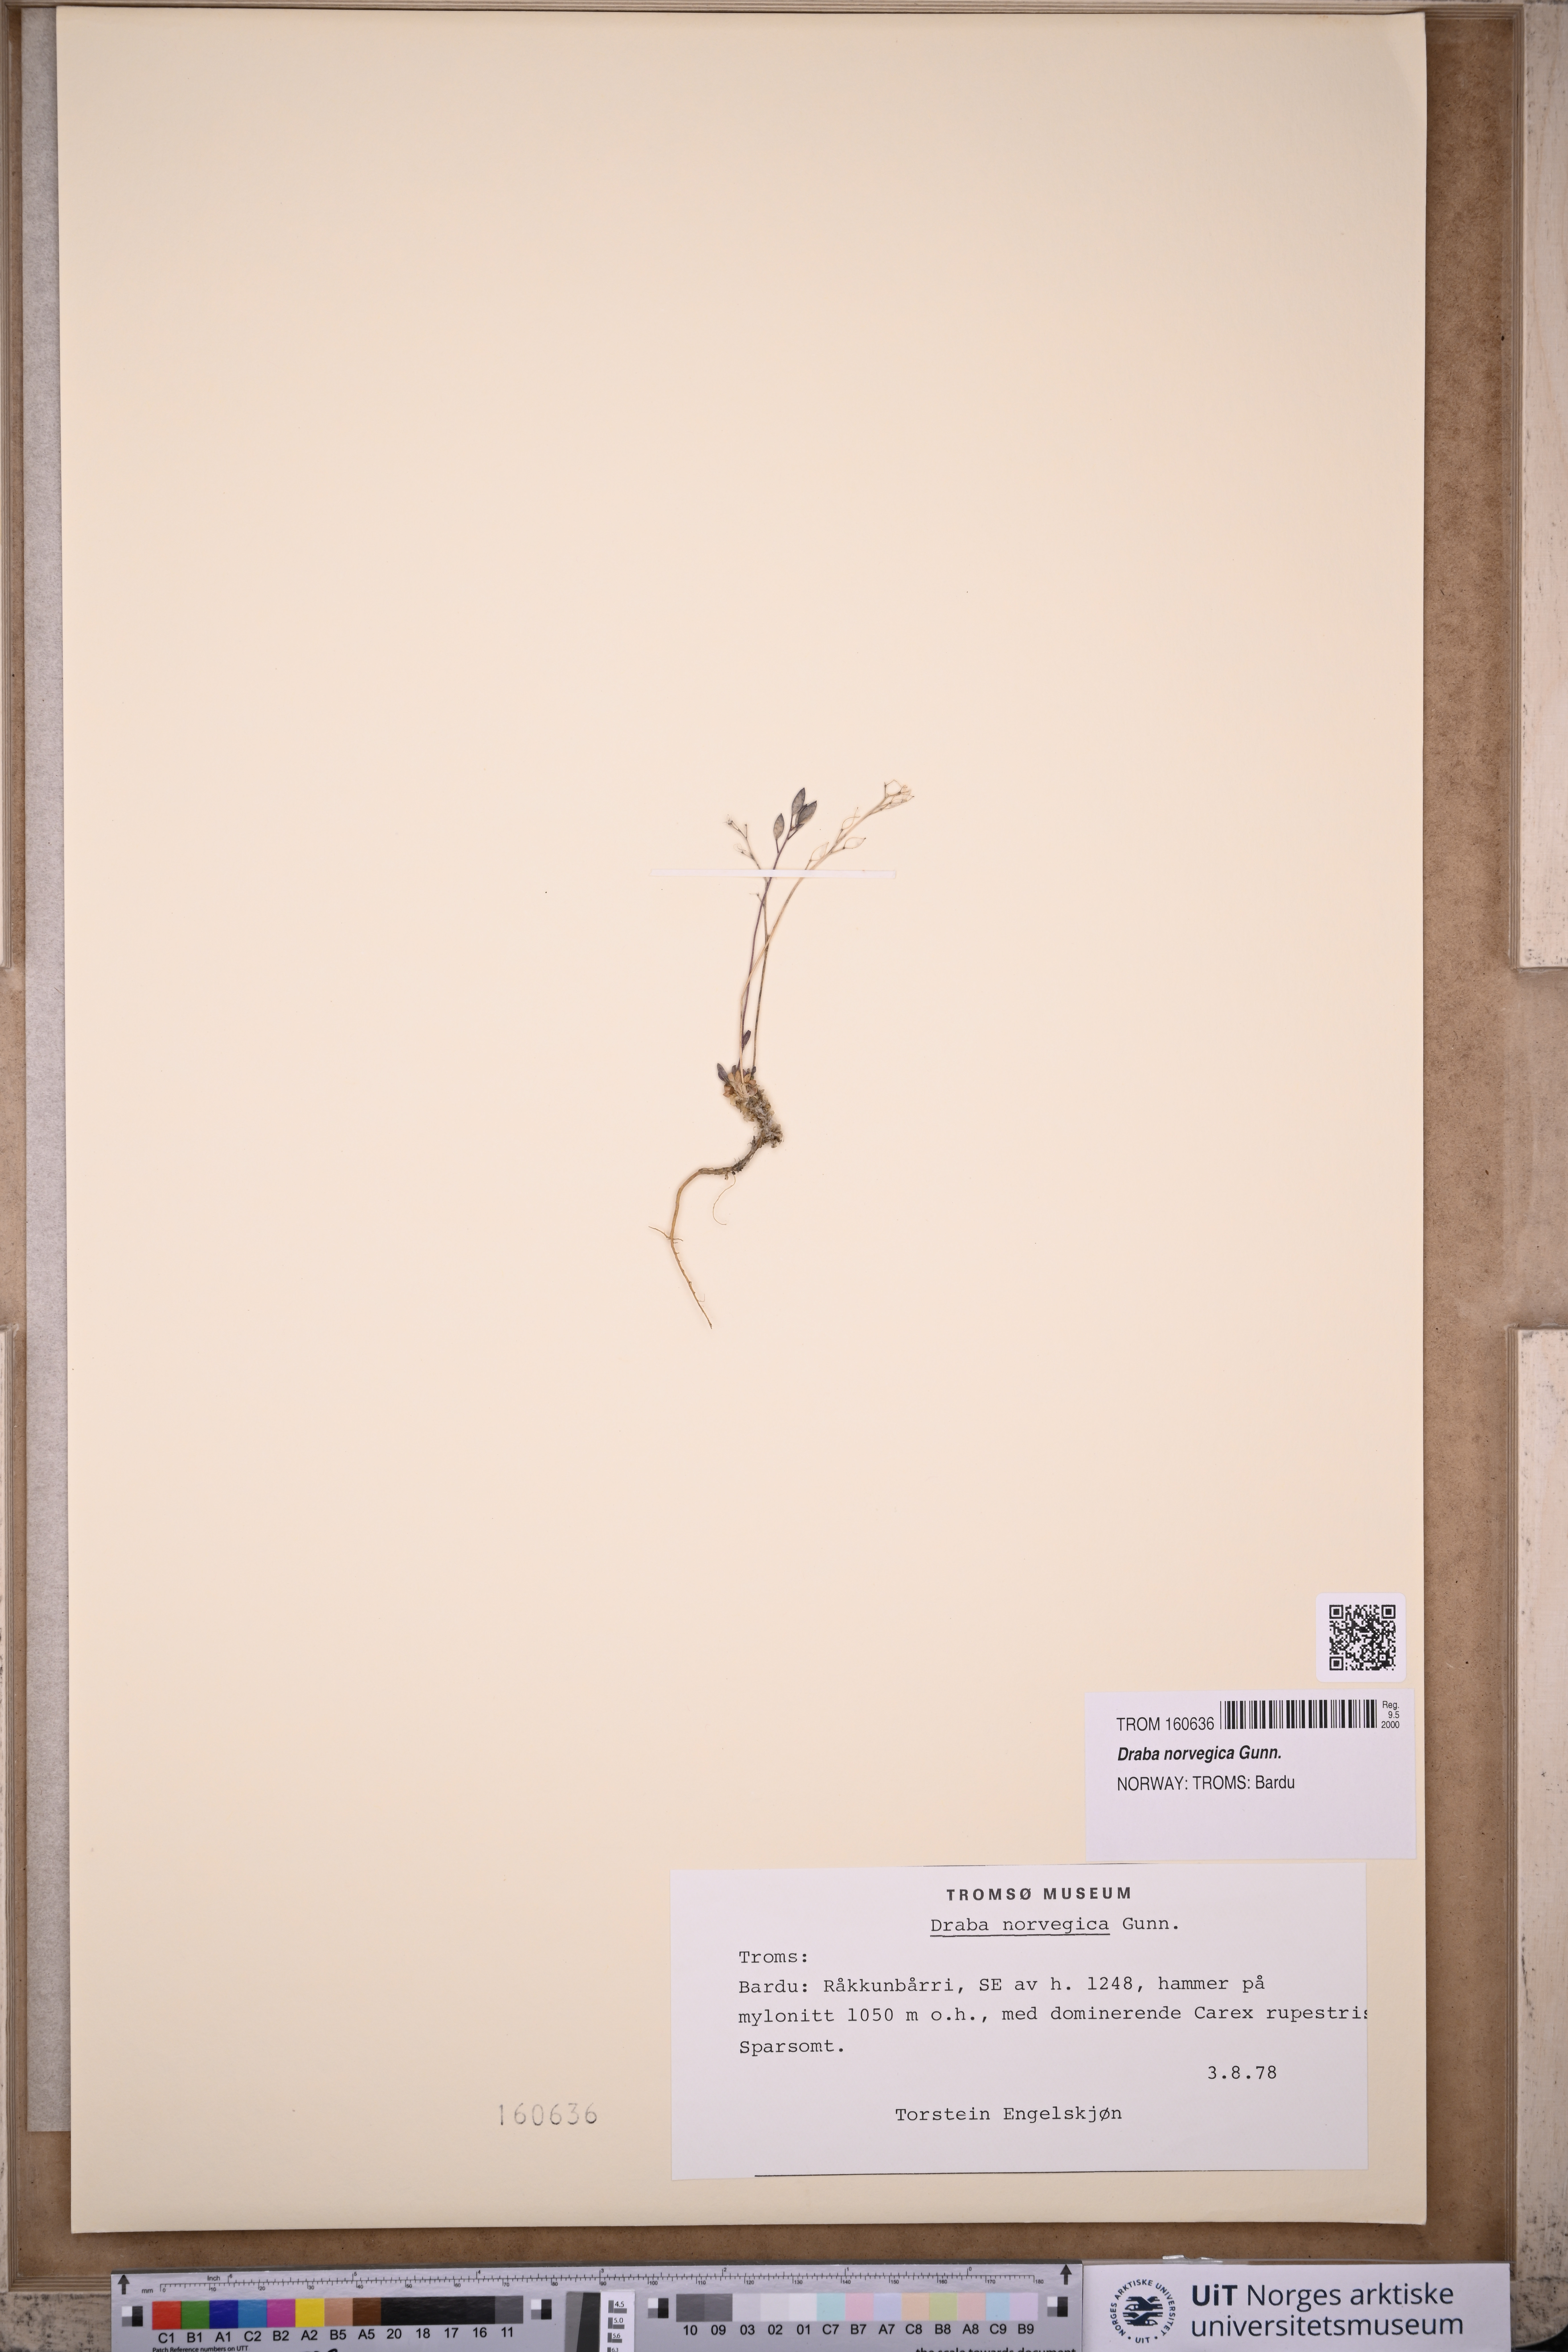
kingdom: Plantae
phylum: Tracheophyta
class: Magnoliopsida
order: Brassicales
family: Brassicaceae
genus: Draba
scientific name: Draba norvegica
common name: Rock whitlowgrass
